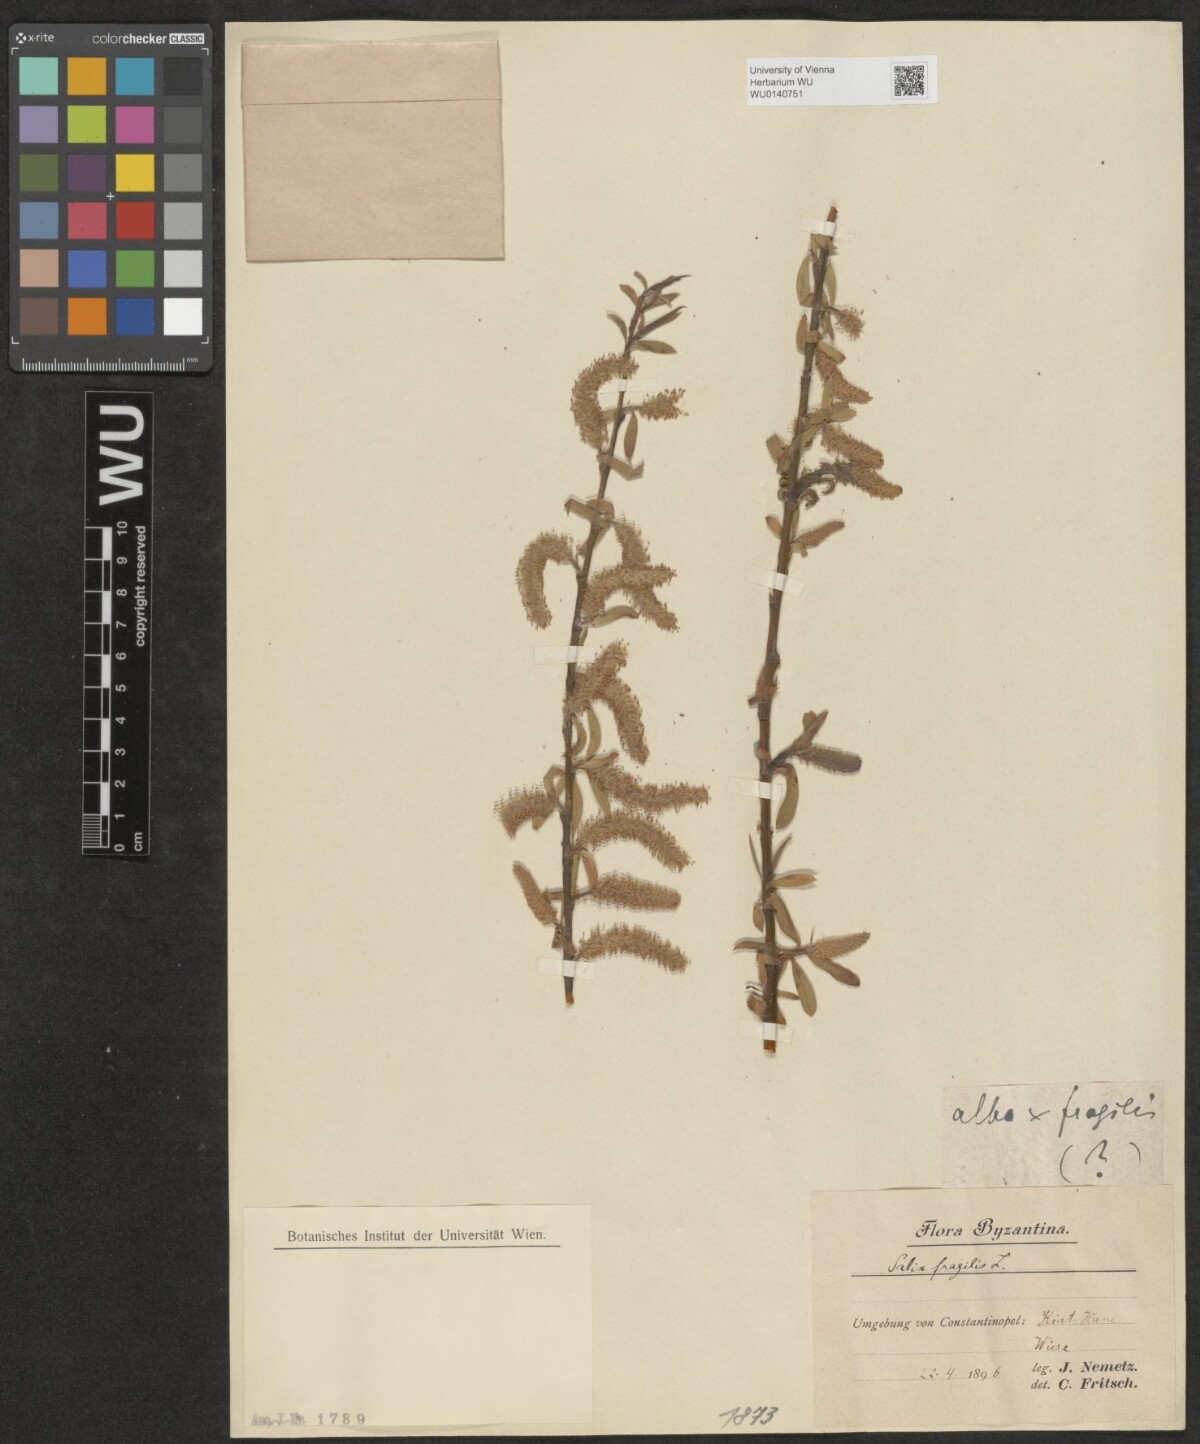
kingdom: Plantae
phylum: Tracheophyta
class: Magnoliopsida
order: Malpighiales
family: Salicaceae
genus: Salix
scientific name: Salix
